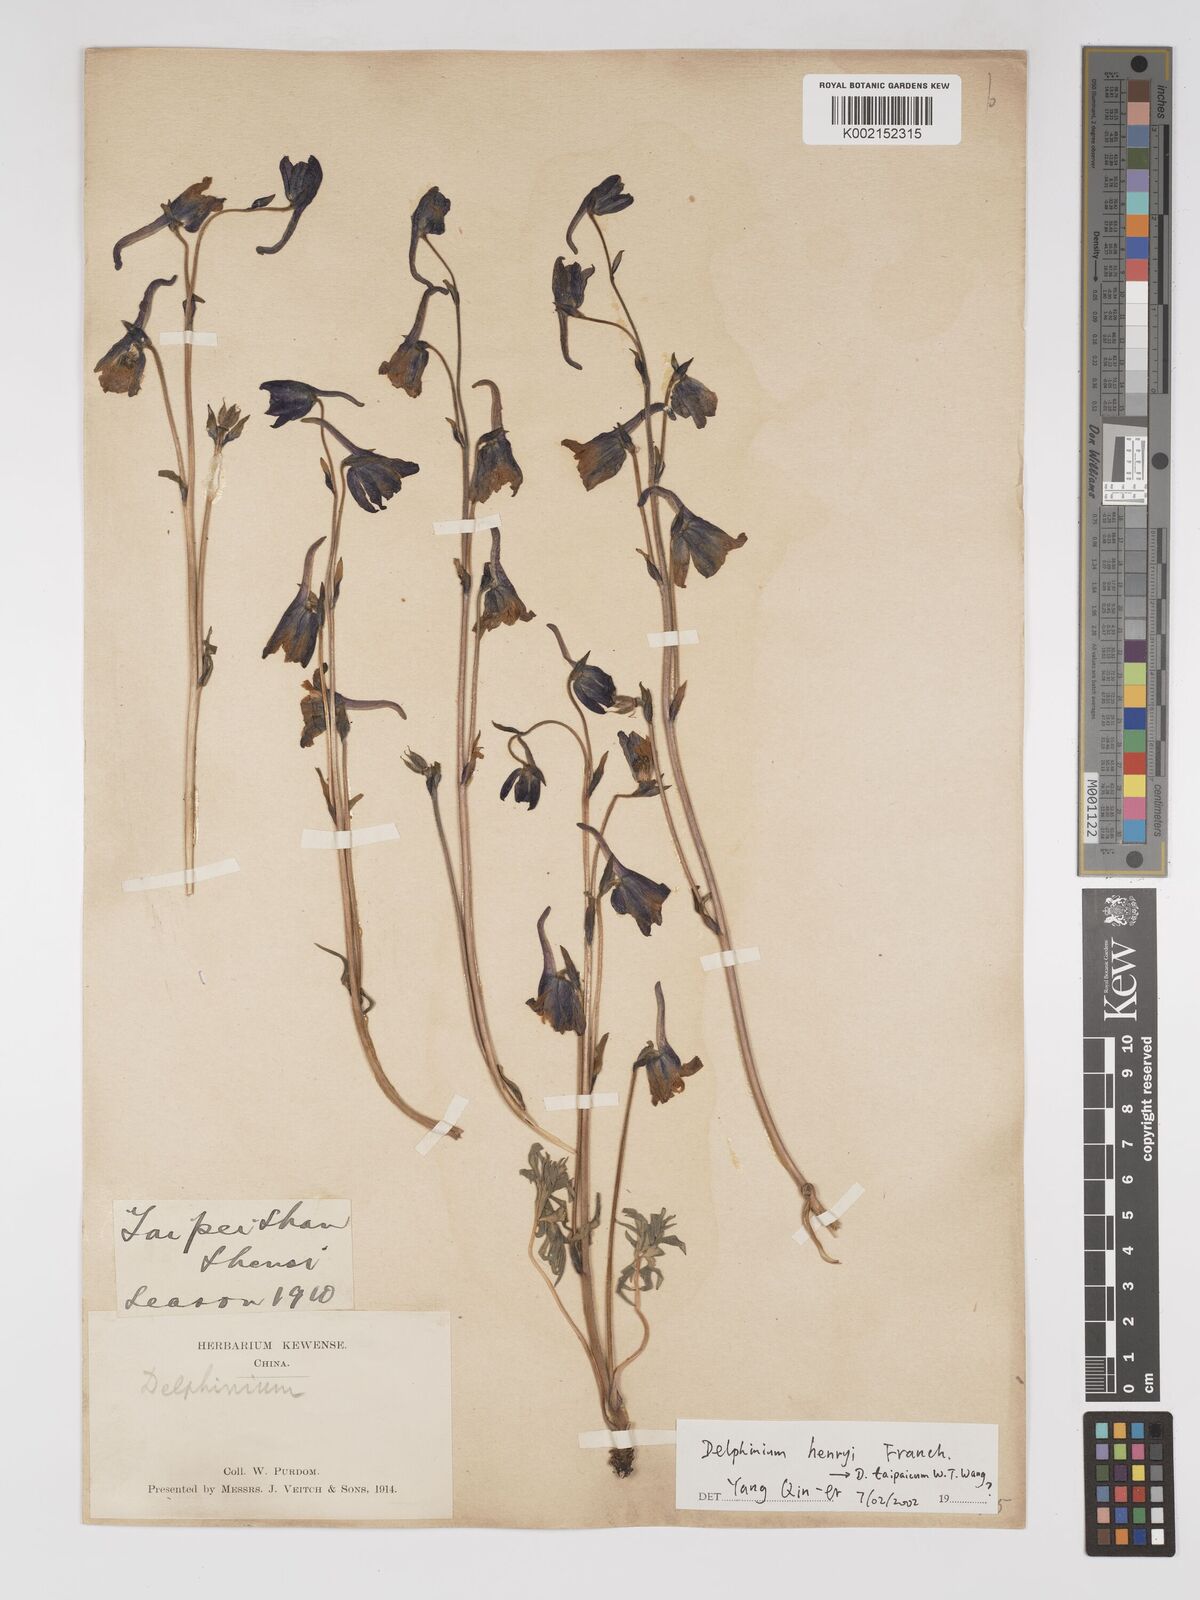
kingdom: Plantae
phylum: Tracheophyta
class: Magnoliopsida
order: Ranunculales
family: Ranunculaceae
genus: Delphinium
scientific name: Delphinium henryi
